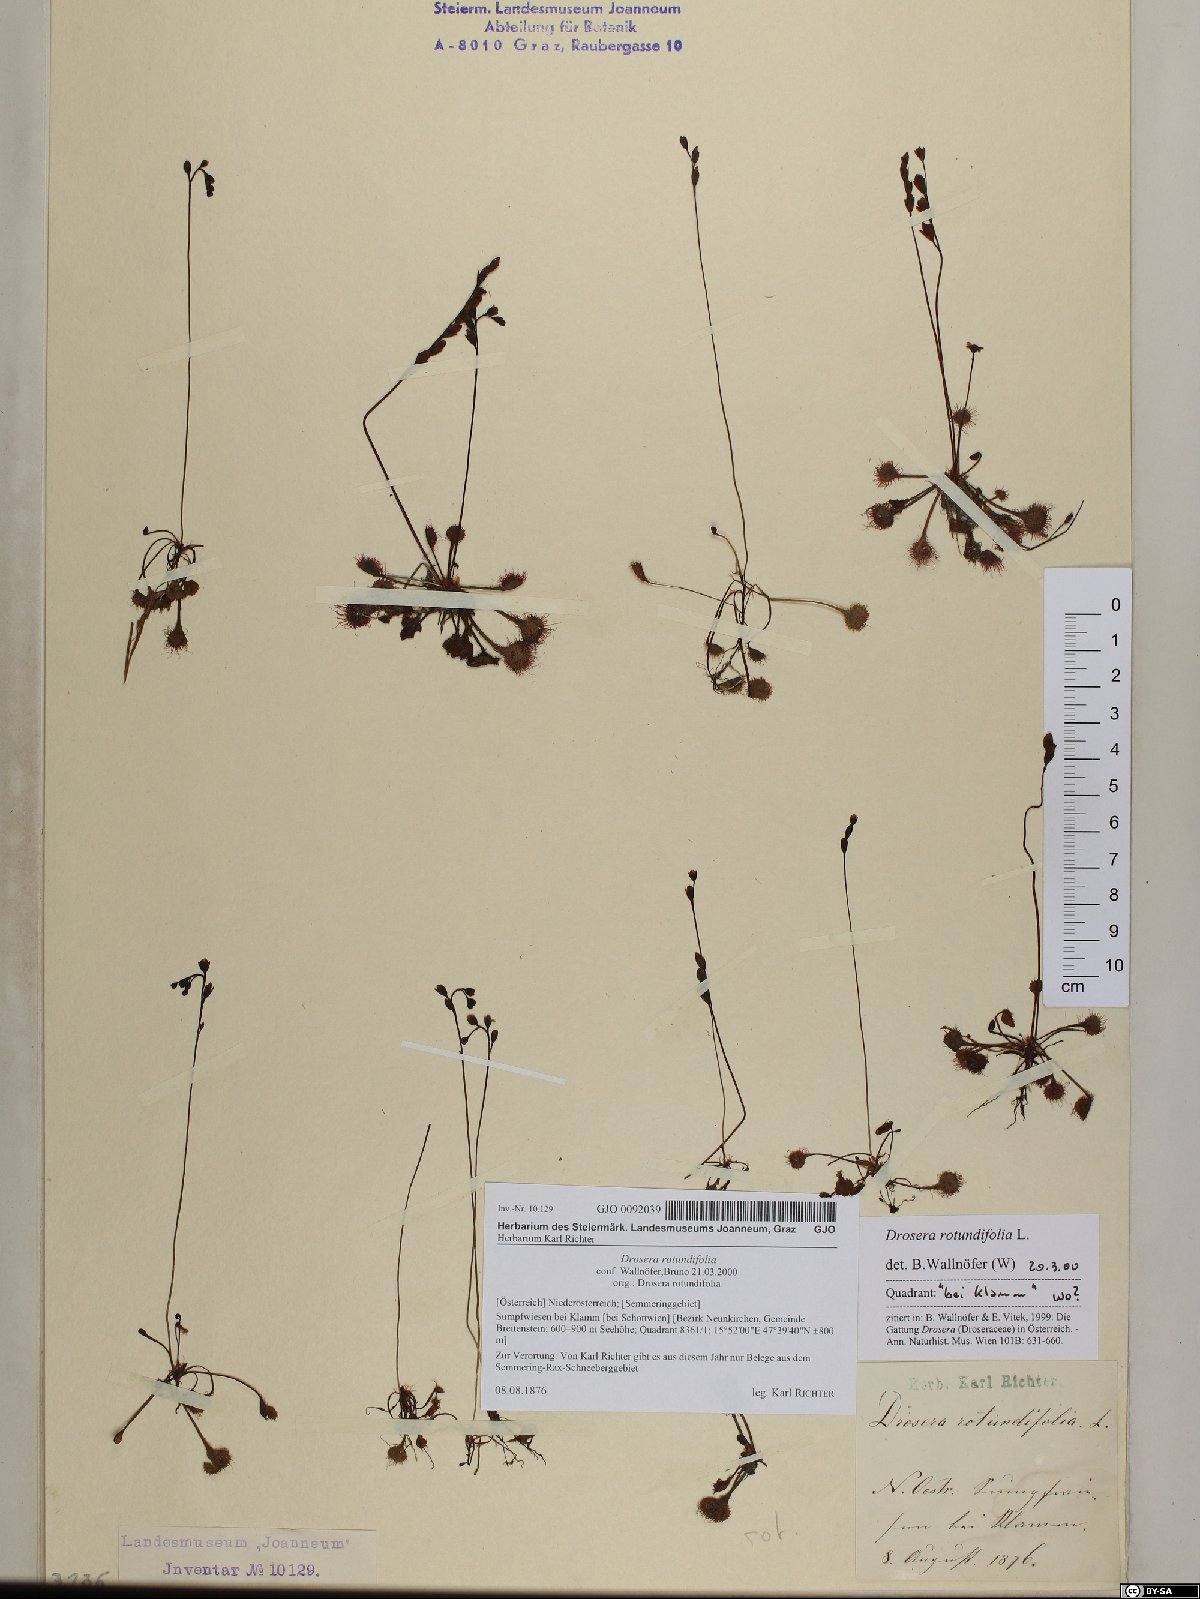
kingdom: Plantae
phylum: Tracheophyta
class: Magnoliopsida
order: Caryophyllales
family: Droseraceae
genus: Drosera
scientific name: Drosera rotundifolia
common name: Round-leaved sundew
